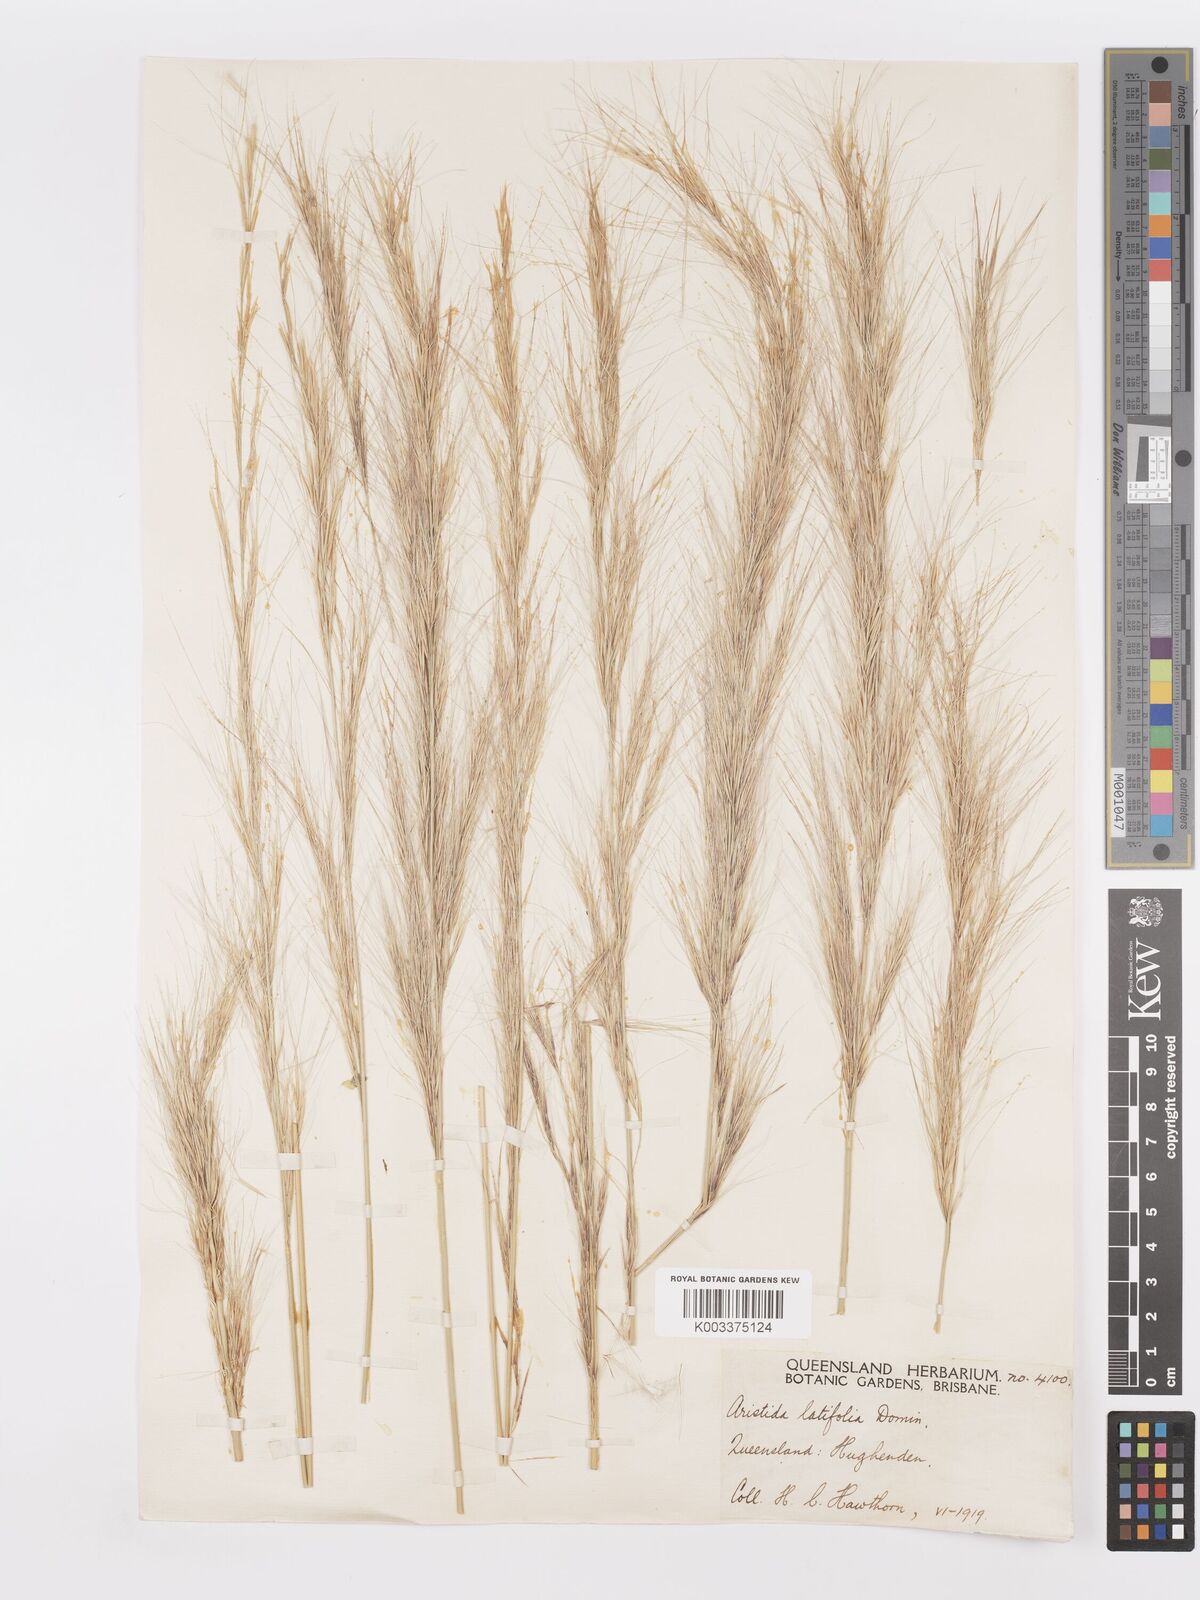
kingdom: Plantae
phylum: Tracheophyta
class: Liliopsida
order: Poales
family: Poaceae
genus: Aristida
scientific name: Aristida latifolia
